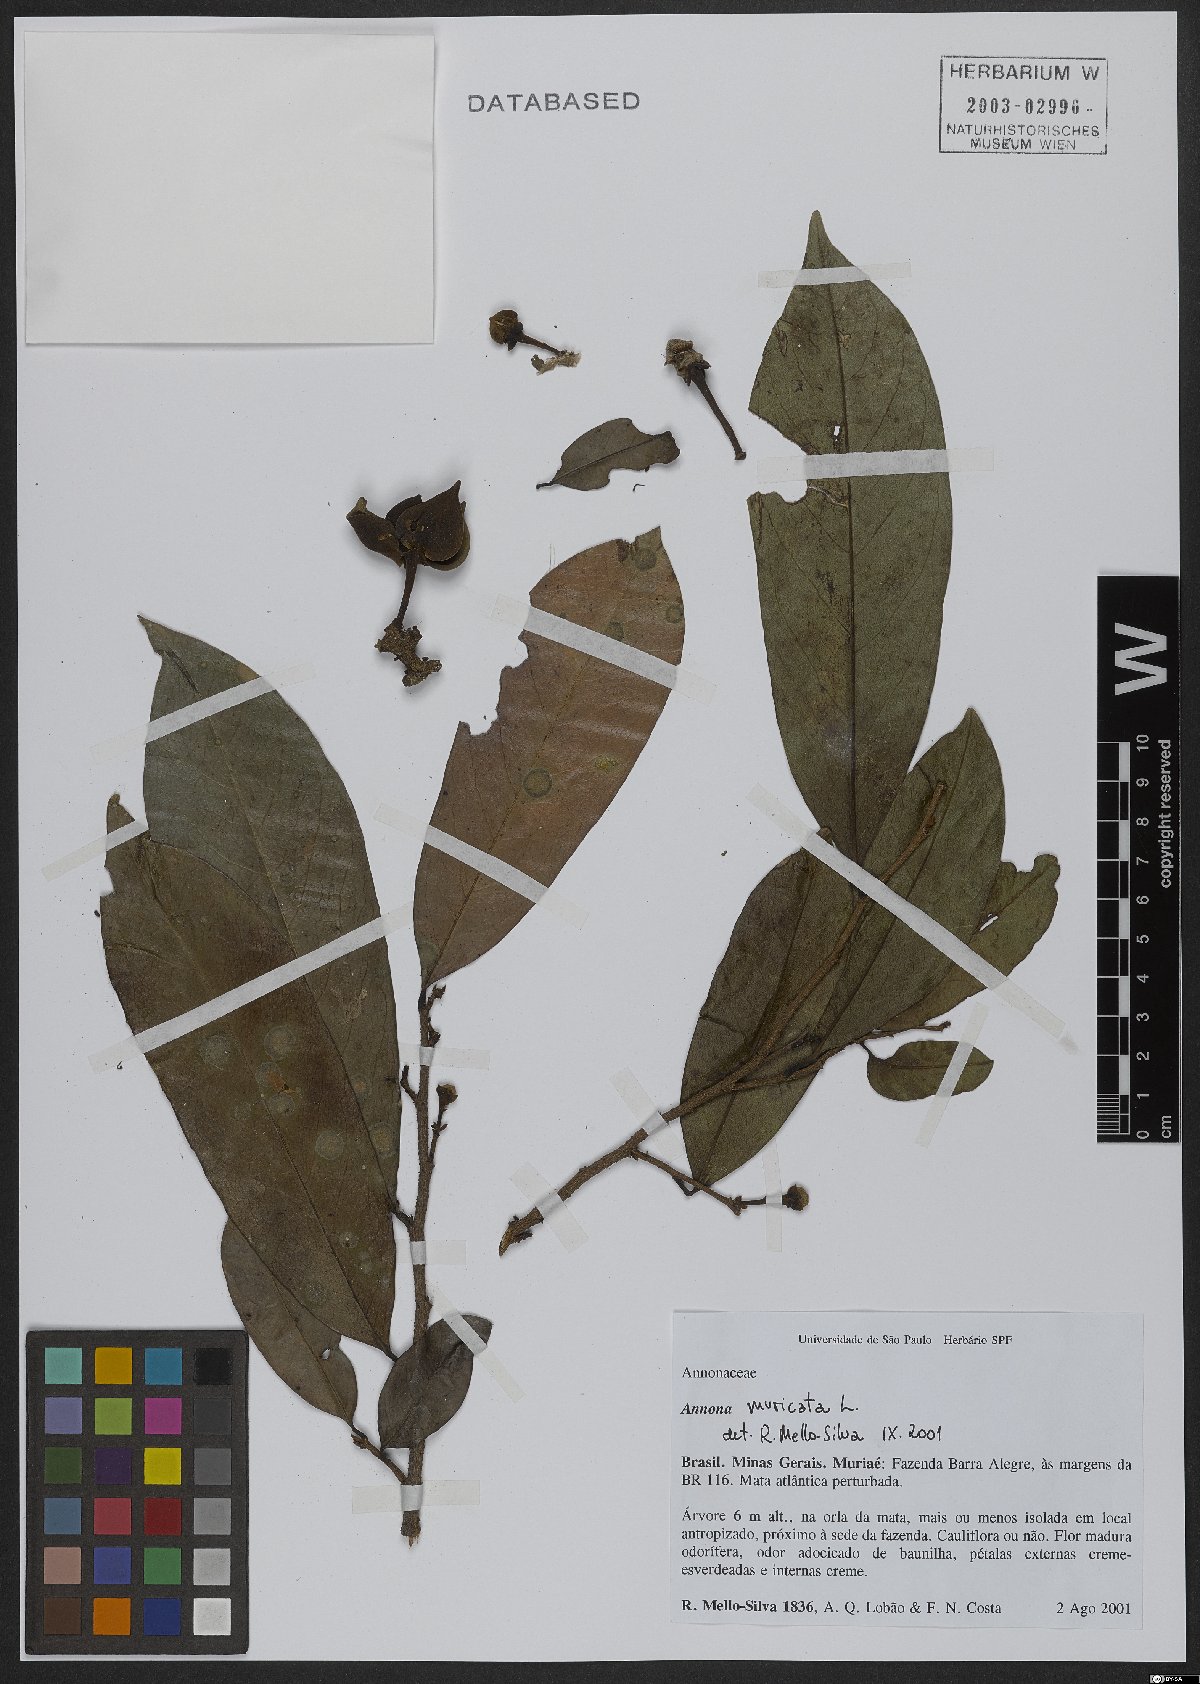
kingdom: Plantae
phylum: Tracheophyta
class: Magnoliopsida
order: Magnoliales
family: Annonaceae
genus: Annona
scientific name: Annona muricata
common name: Soursop
